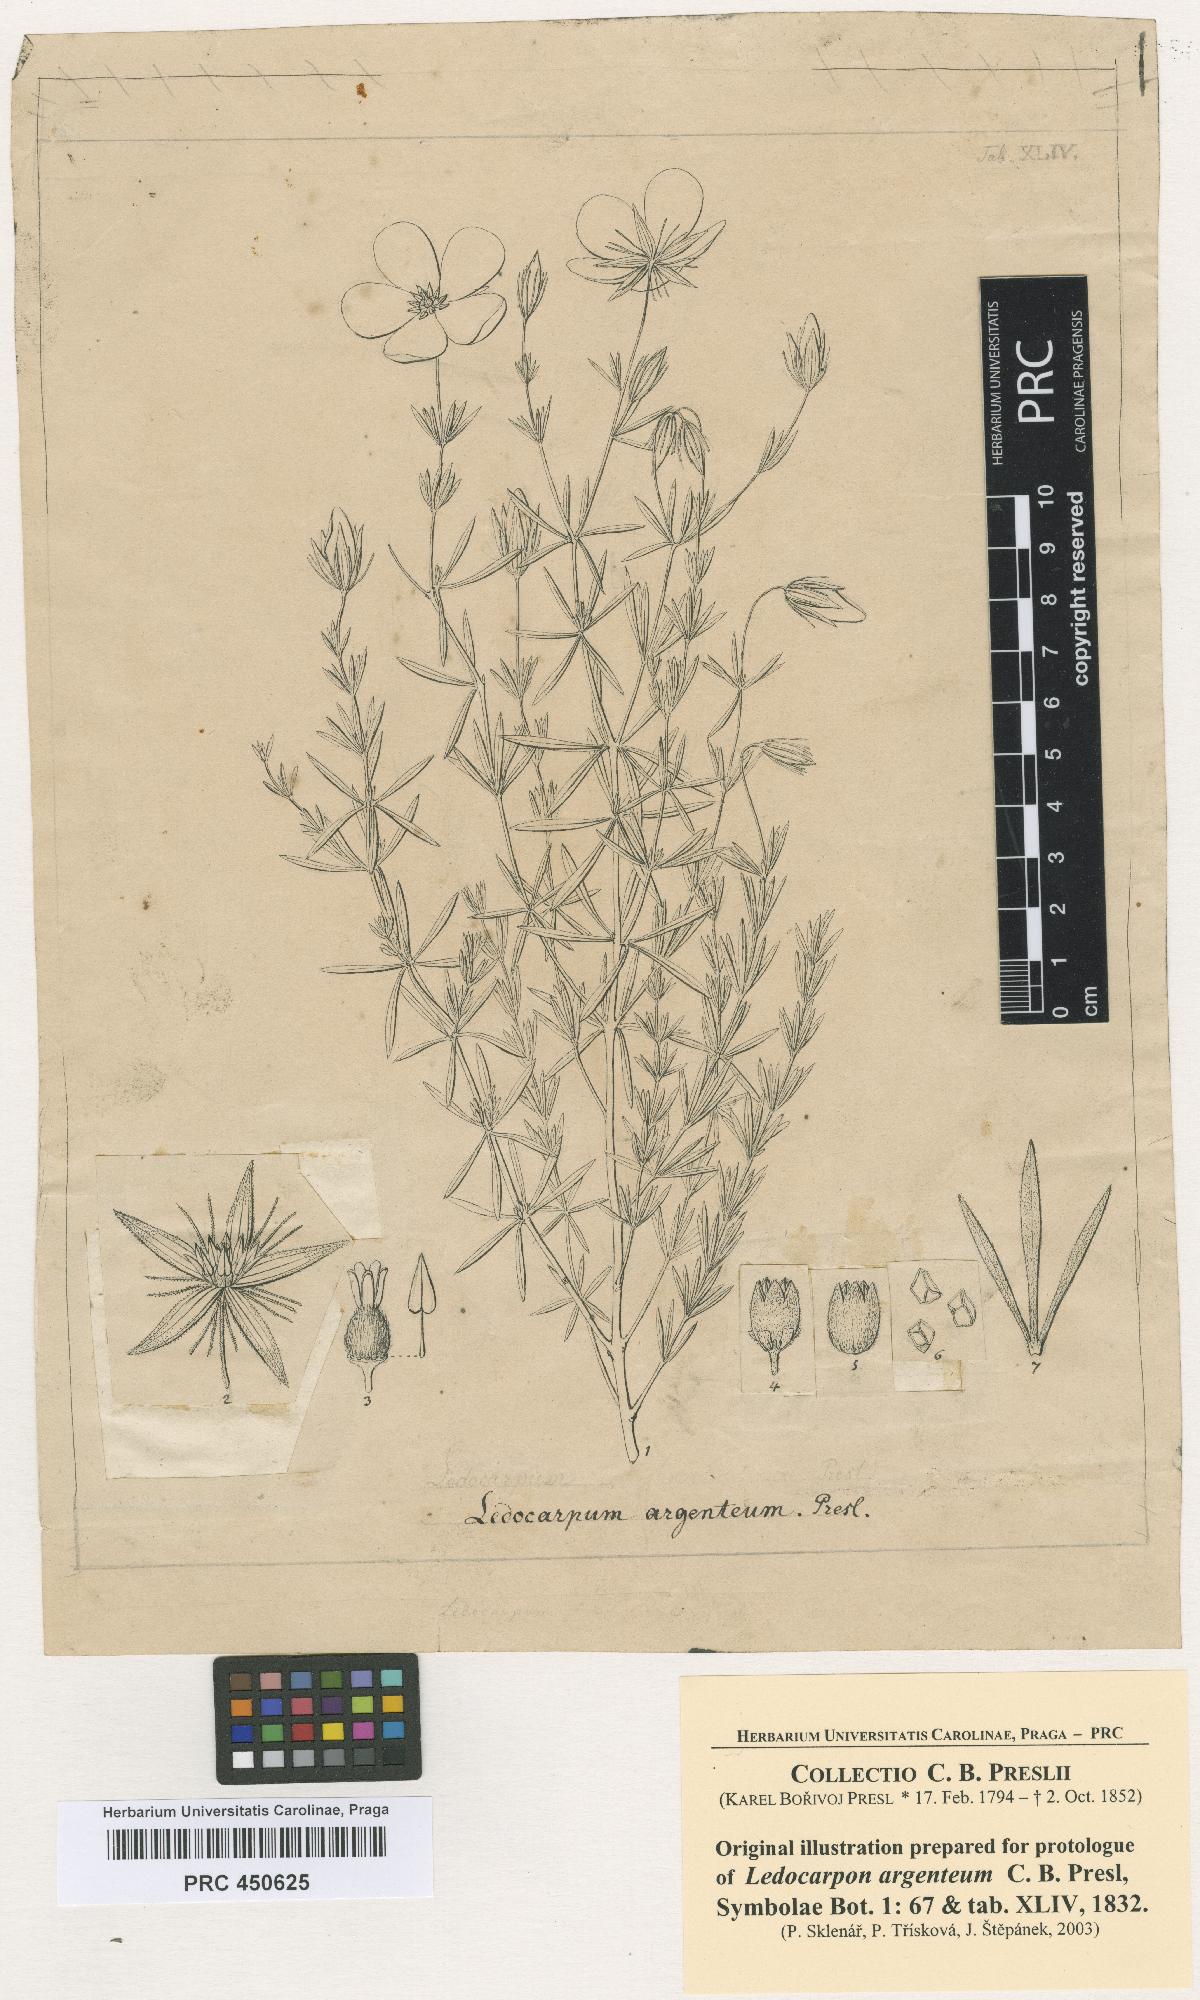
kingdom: Plantae
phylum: Tracheophyta
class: Magnoliopsida
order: Geraniales
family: Vivianiaceae
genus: Balbisia
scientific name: Balbisia verticillata
